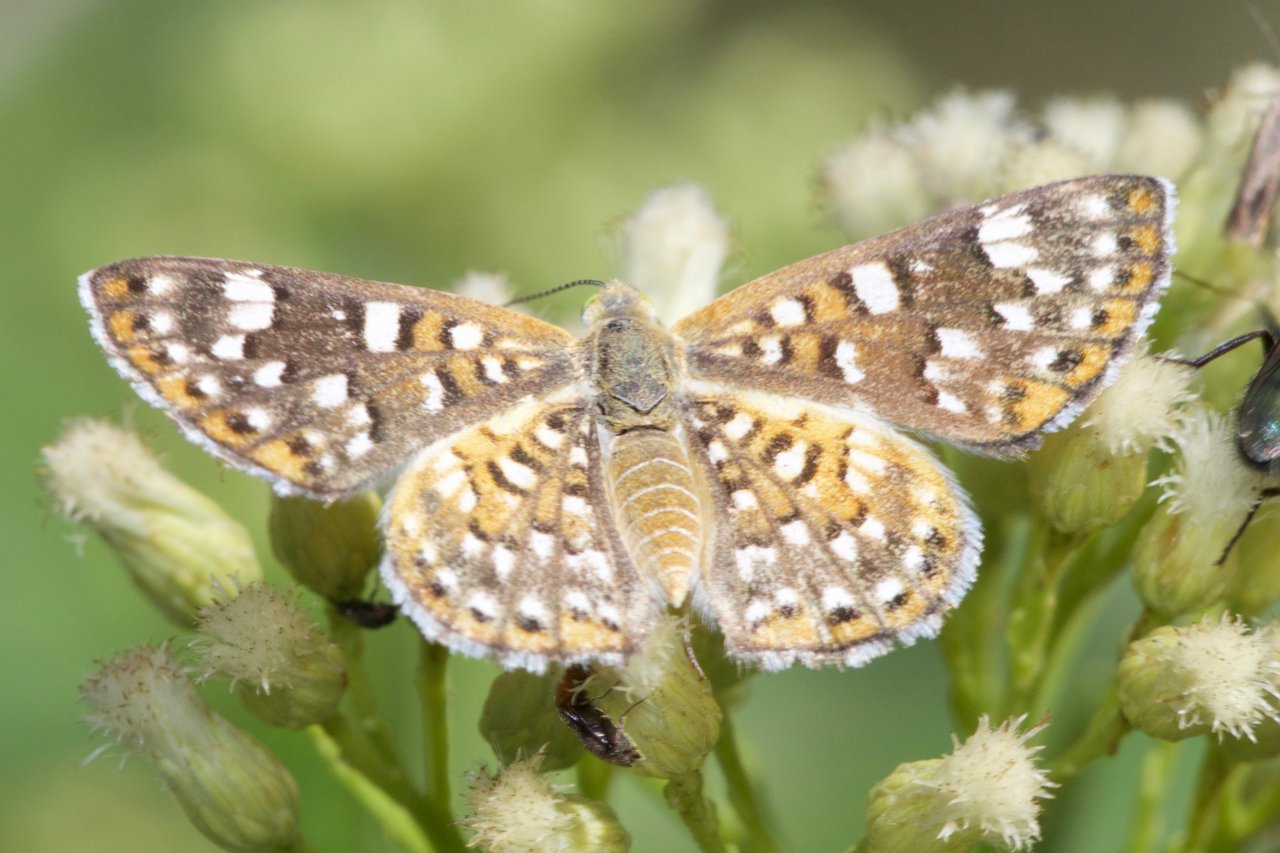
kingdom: Animalia
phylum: Arthropoda
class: Insecta
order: Lepidoptera
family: Riodinidae
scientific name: Riodinidae
